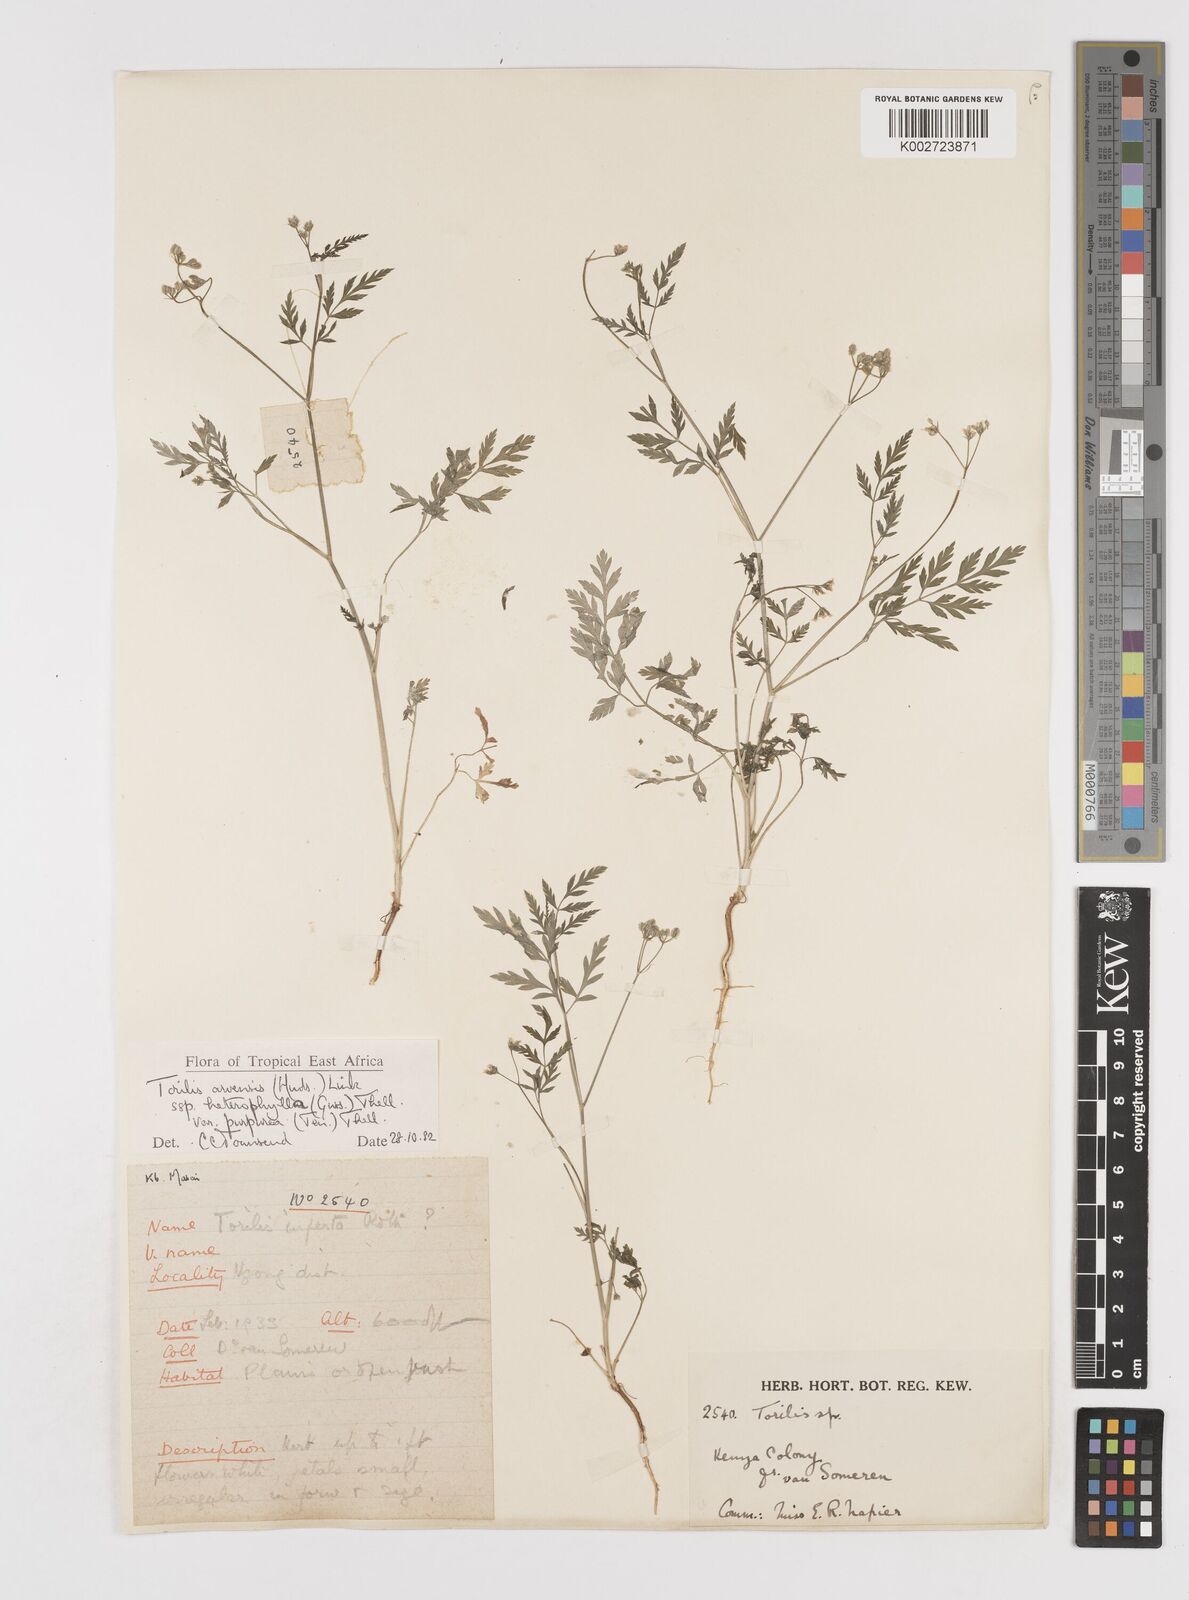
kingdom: Plantae
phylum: Tracheophyta
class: Magnoliopsida
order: Apiales
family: Apiaceae
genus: Torilis
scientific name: Torilis arvensis
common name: Spreading hedge-parsley
